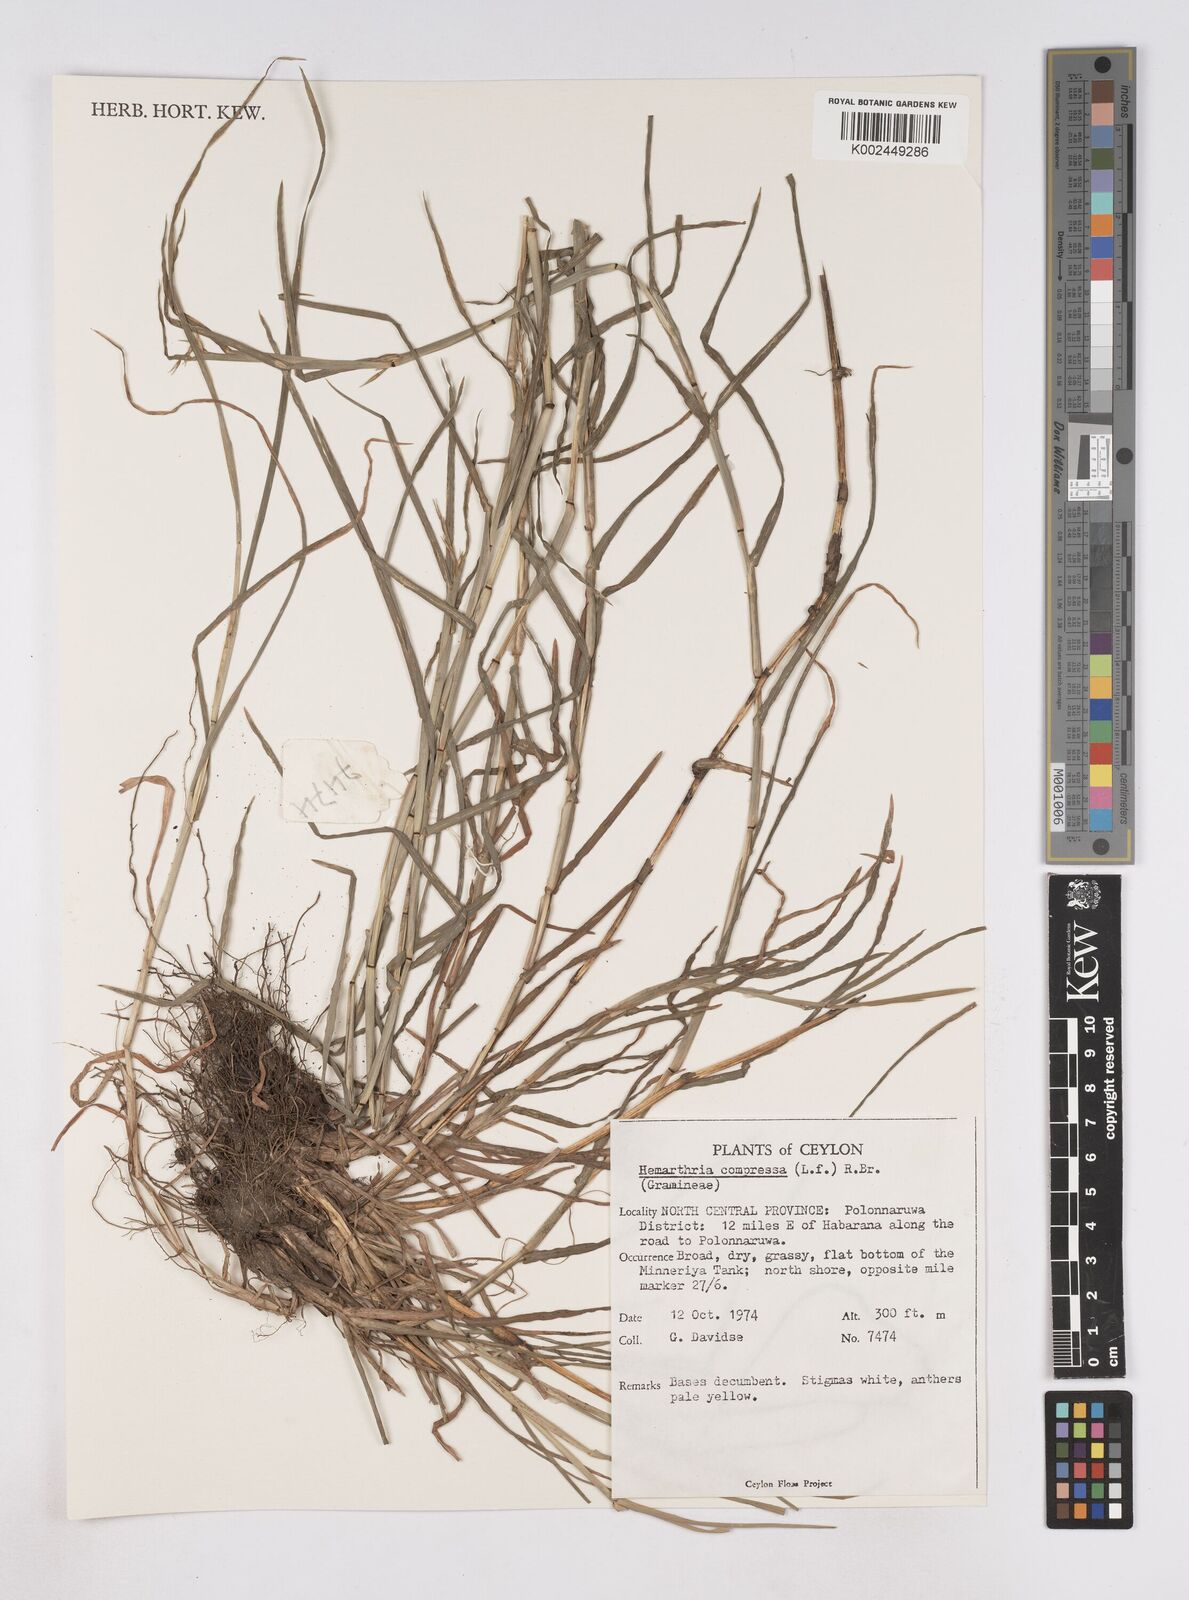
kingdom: Plantae
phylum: Tracheophyta
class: Liliopsida
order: Poales
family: Poaceae
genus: Hemarthria
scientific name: Hemarthria compressa
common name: Whip grass
